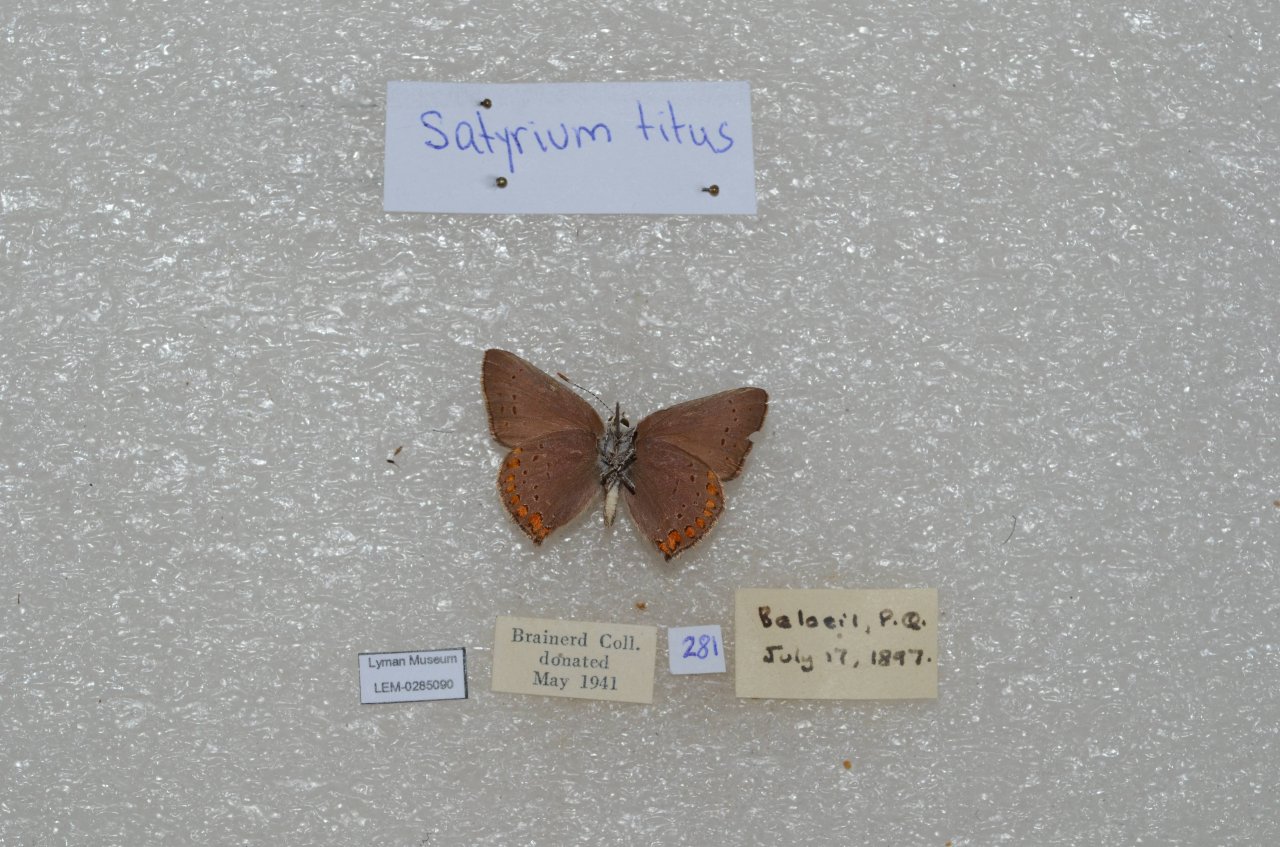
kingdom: Animalia
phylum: Arthropoda
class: Insecta
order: Lepidoptera
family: Lycaenidae
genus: Harkenclenus
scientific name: Harkenclenus titus
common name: Coral Hairstreak
